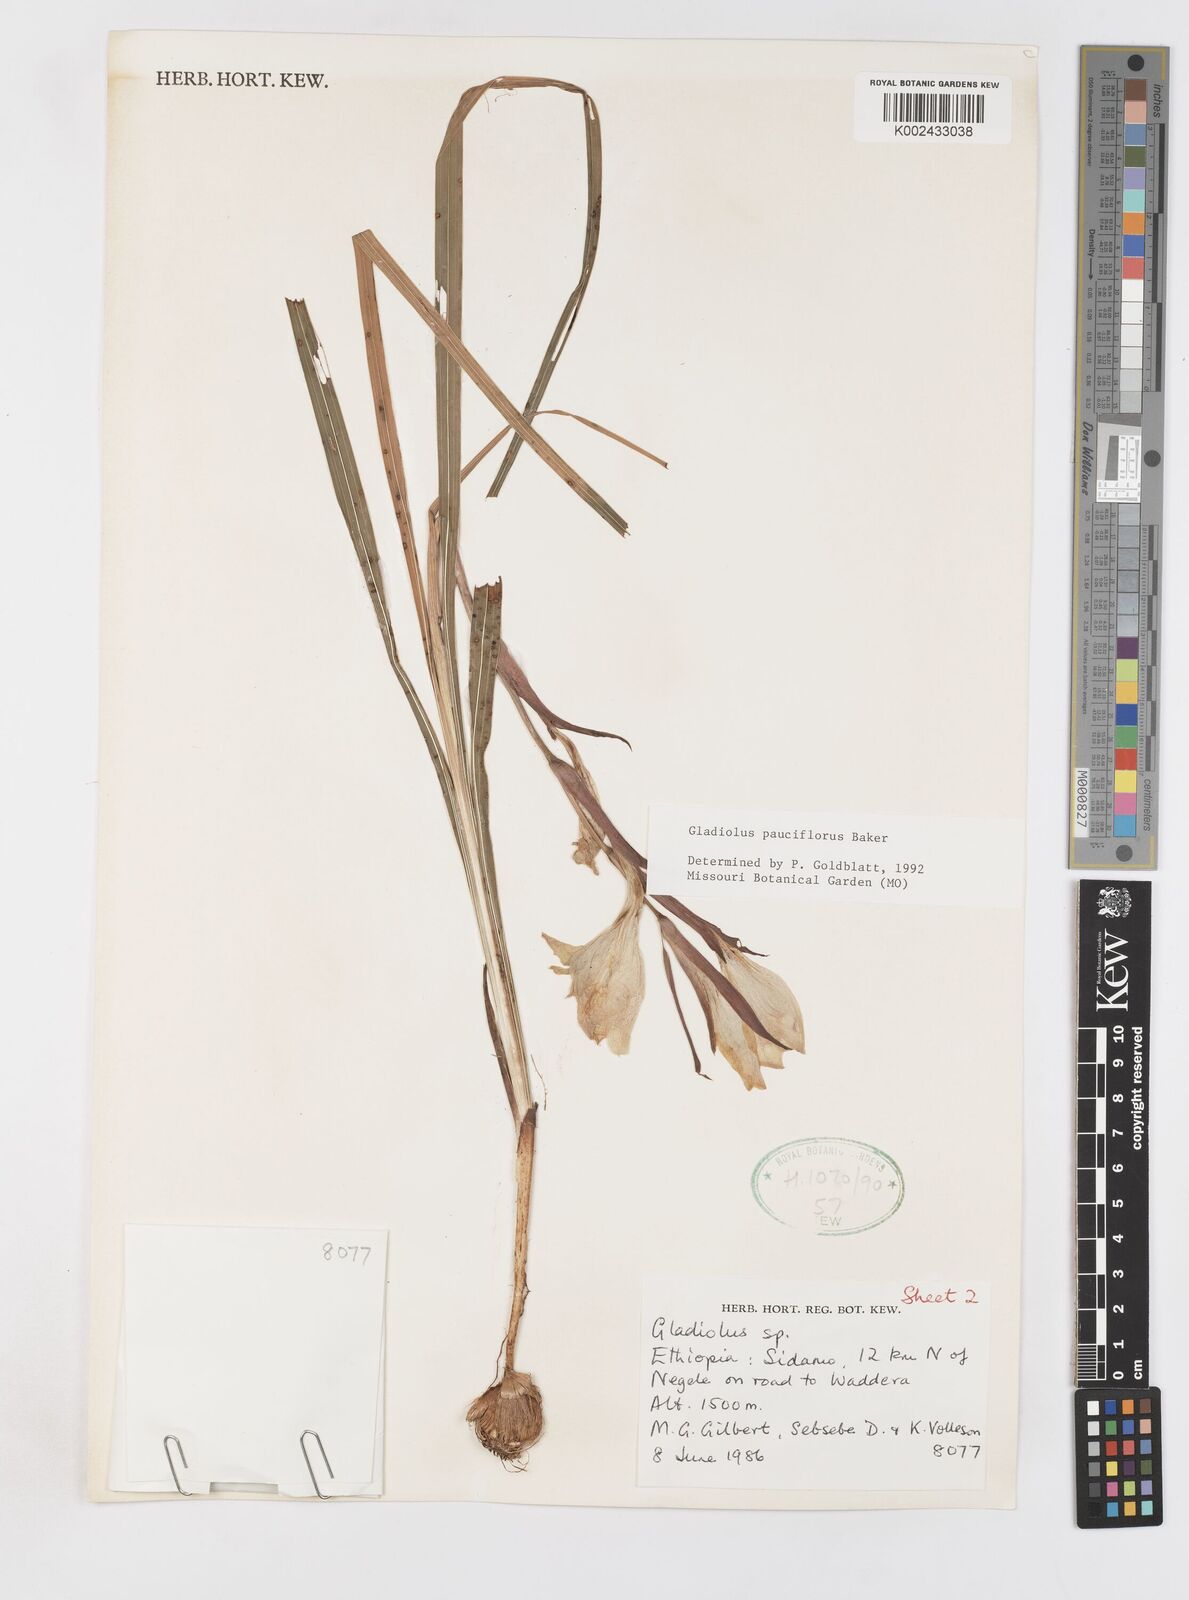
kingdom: Plantae
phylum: Tracheophyta
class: Liliopsida
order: Asparagales
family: Iridaceae
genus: Gladiolus
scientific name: Gladiolus pauciflorus
